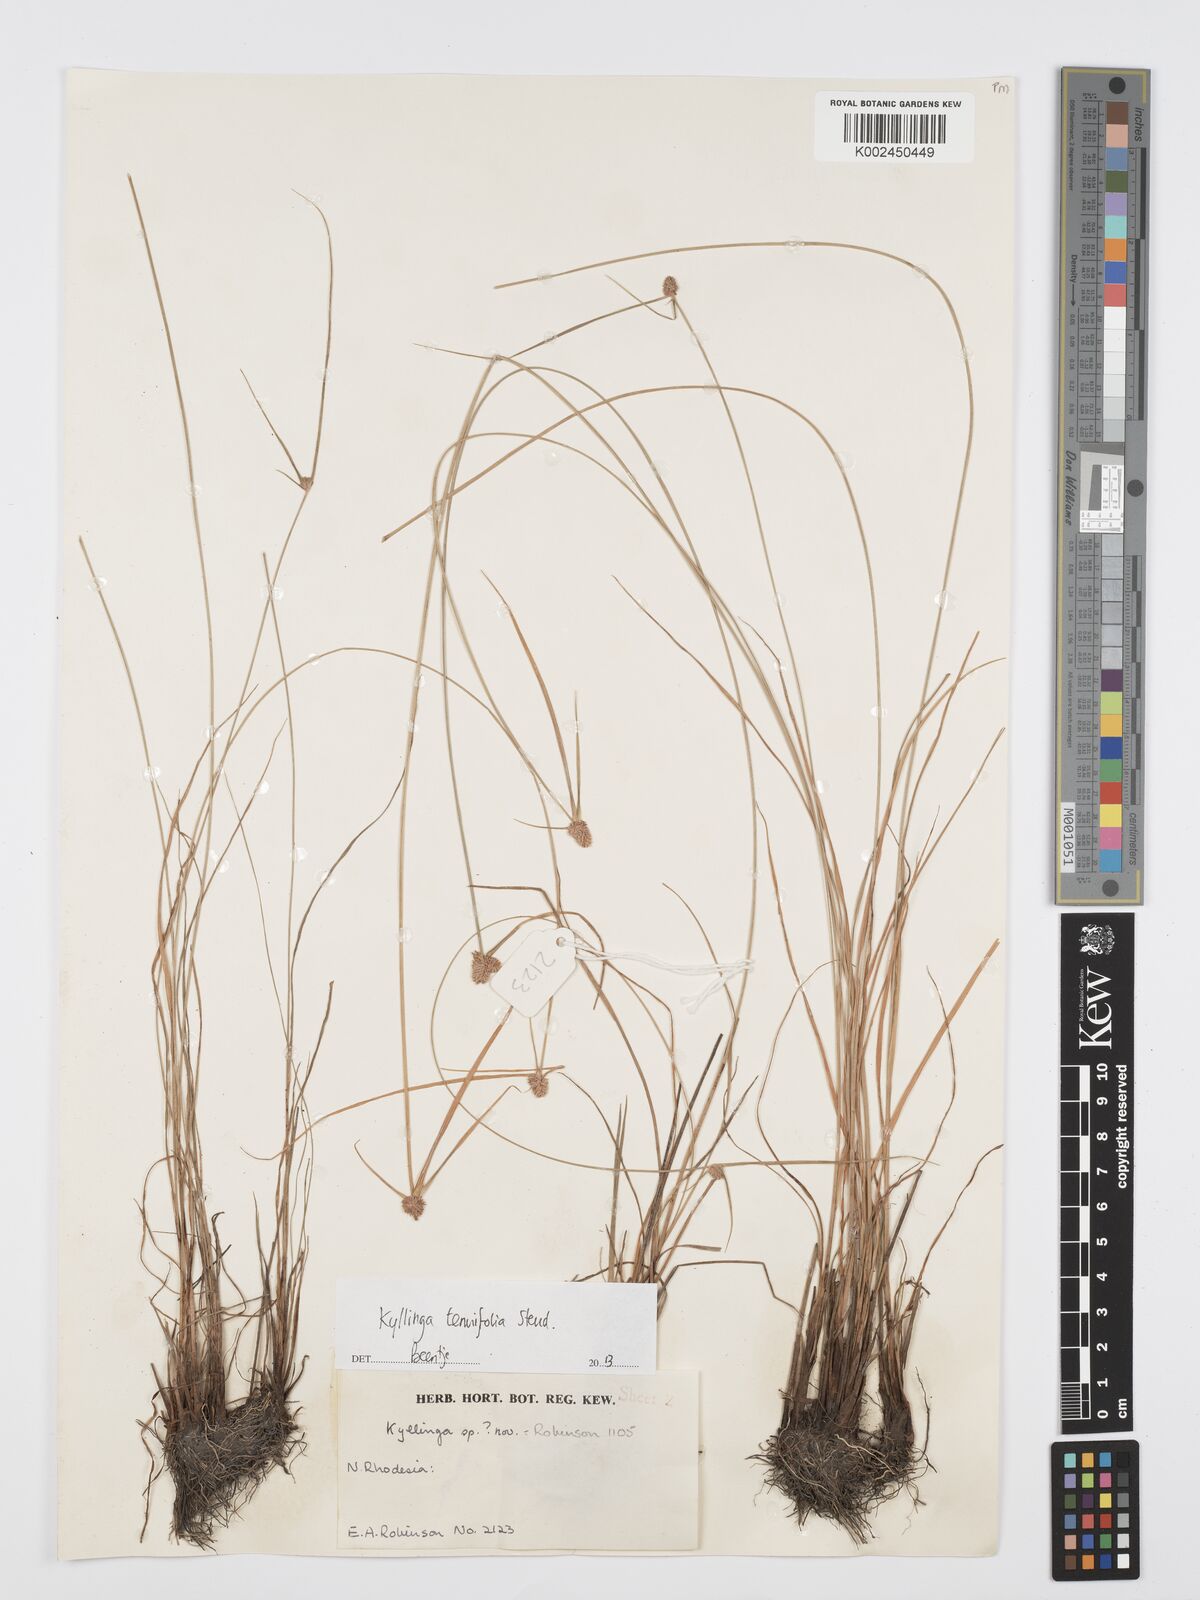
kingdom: Plantae
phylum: Tracheophyta
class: Liliopsida
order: Poales
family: Cyperaceae
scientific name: Cyperaceae
